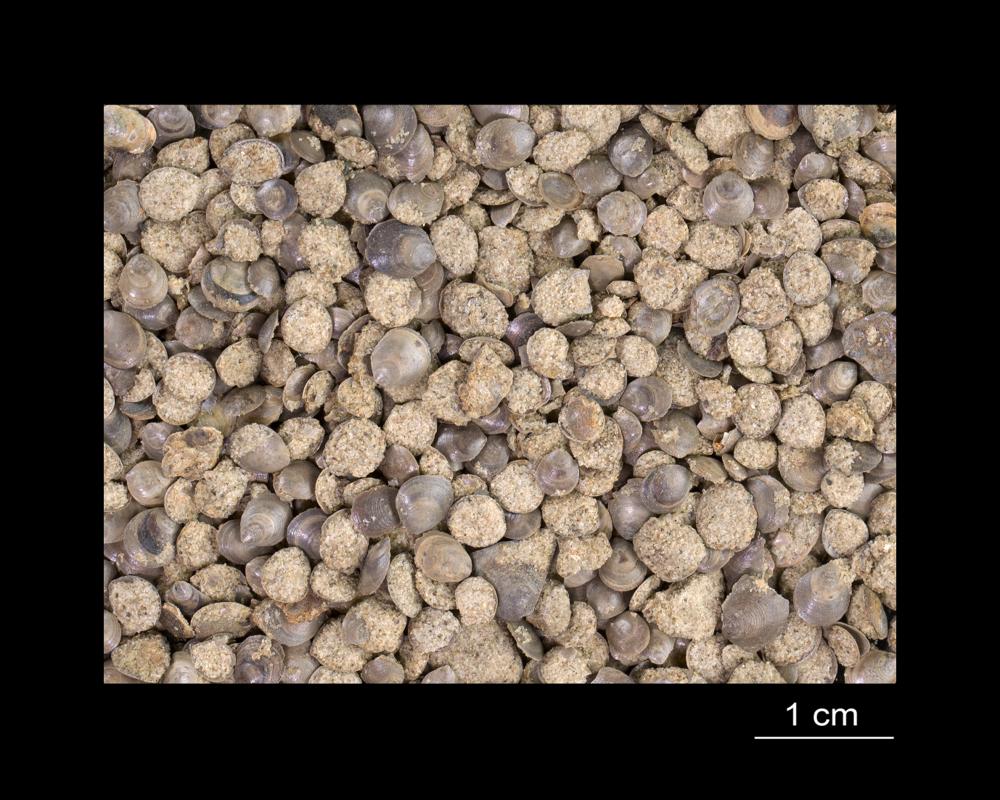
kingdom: Animalia
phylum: Brachiopoda
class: Lingulata
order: Lingulida
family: Obolidae
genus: Schmidtites
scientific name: Schmidtites Schmidtia celata
